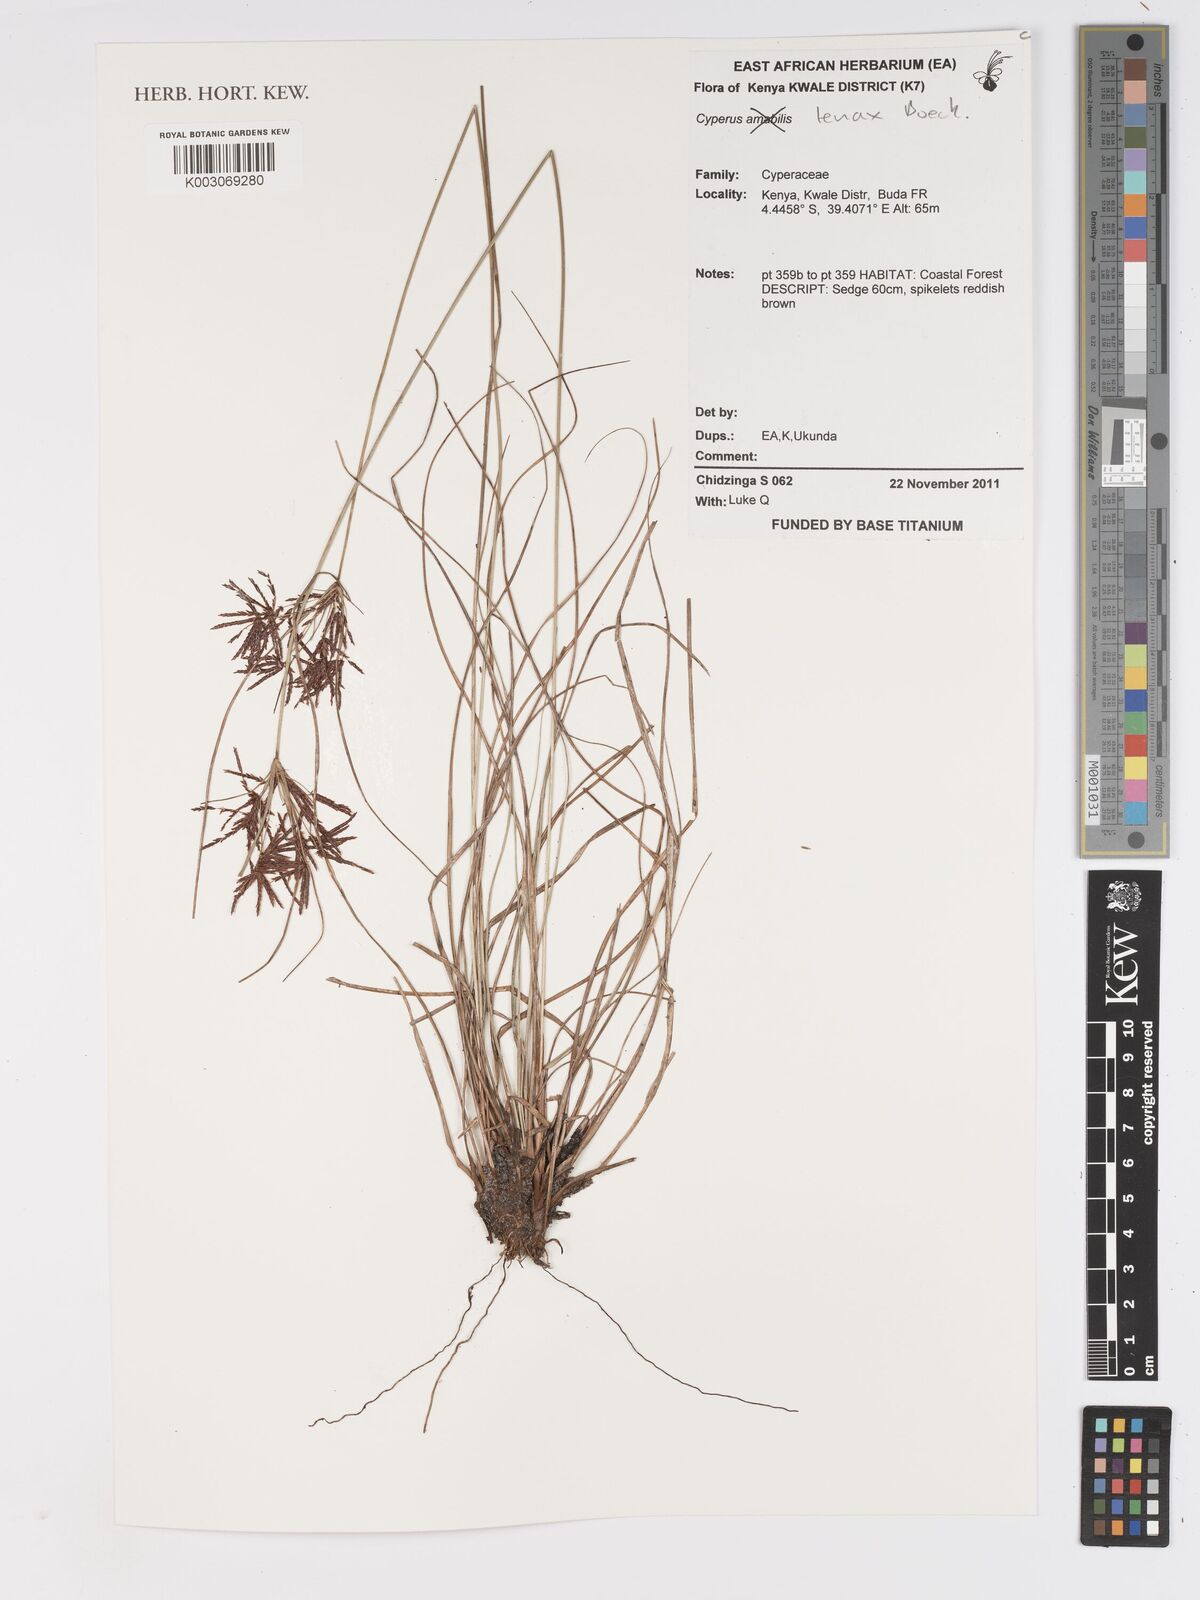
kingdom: Plantae
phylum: Tracheophyta
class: Liliopsida
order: Poales
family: Cyperaceae
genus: Cyperus
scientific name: Cyperus tenax
